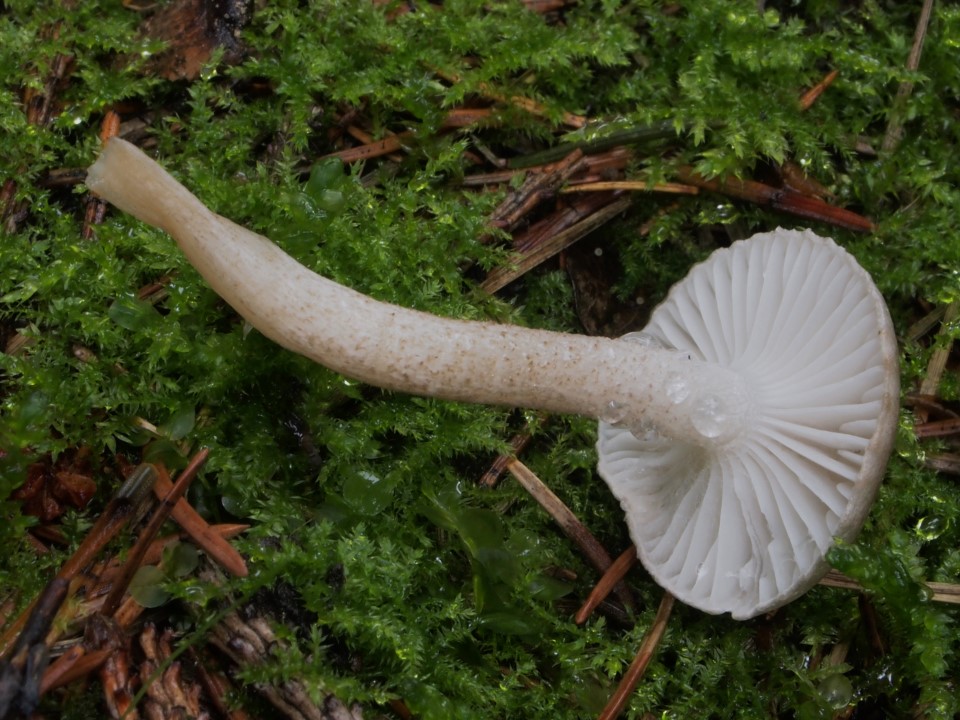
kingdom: Fungi
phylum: Basidiomycota
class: Agaricomycetes
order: Agaricales
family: Hygrophoraceae
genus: Hygrophorus
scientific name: Hygrophorus pustulatus
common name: mørkprikket sneglehat
